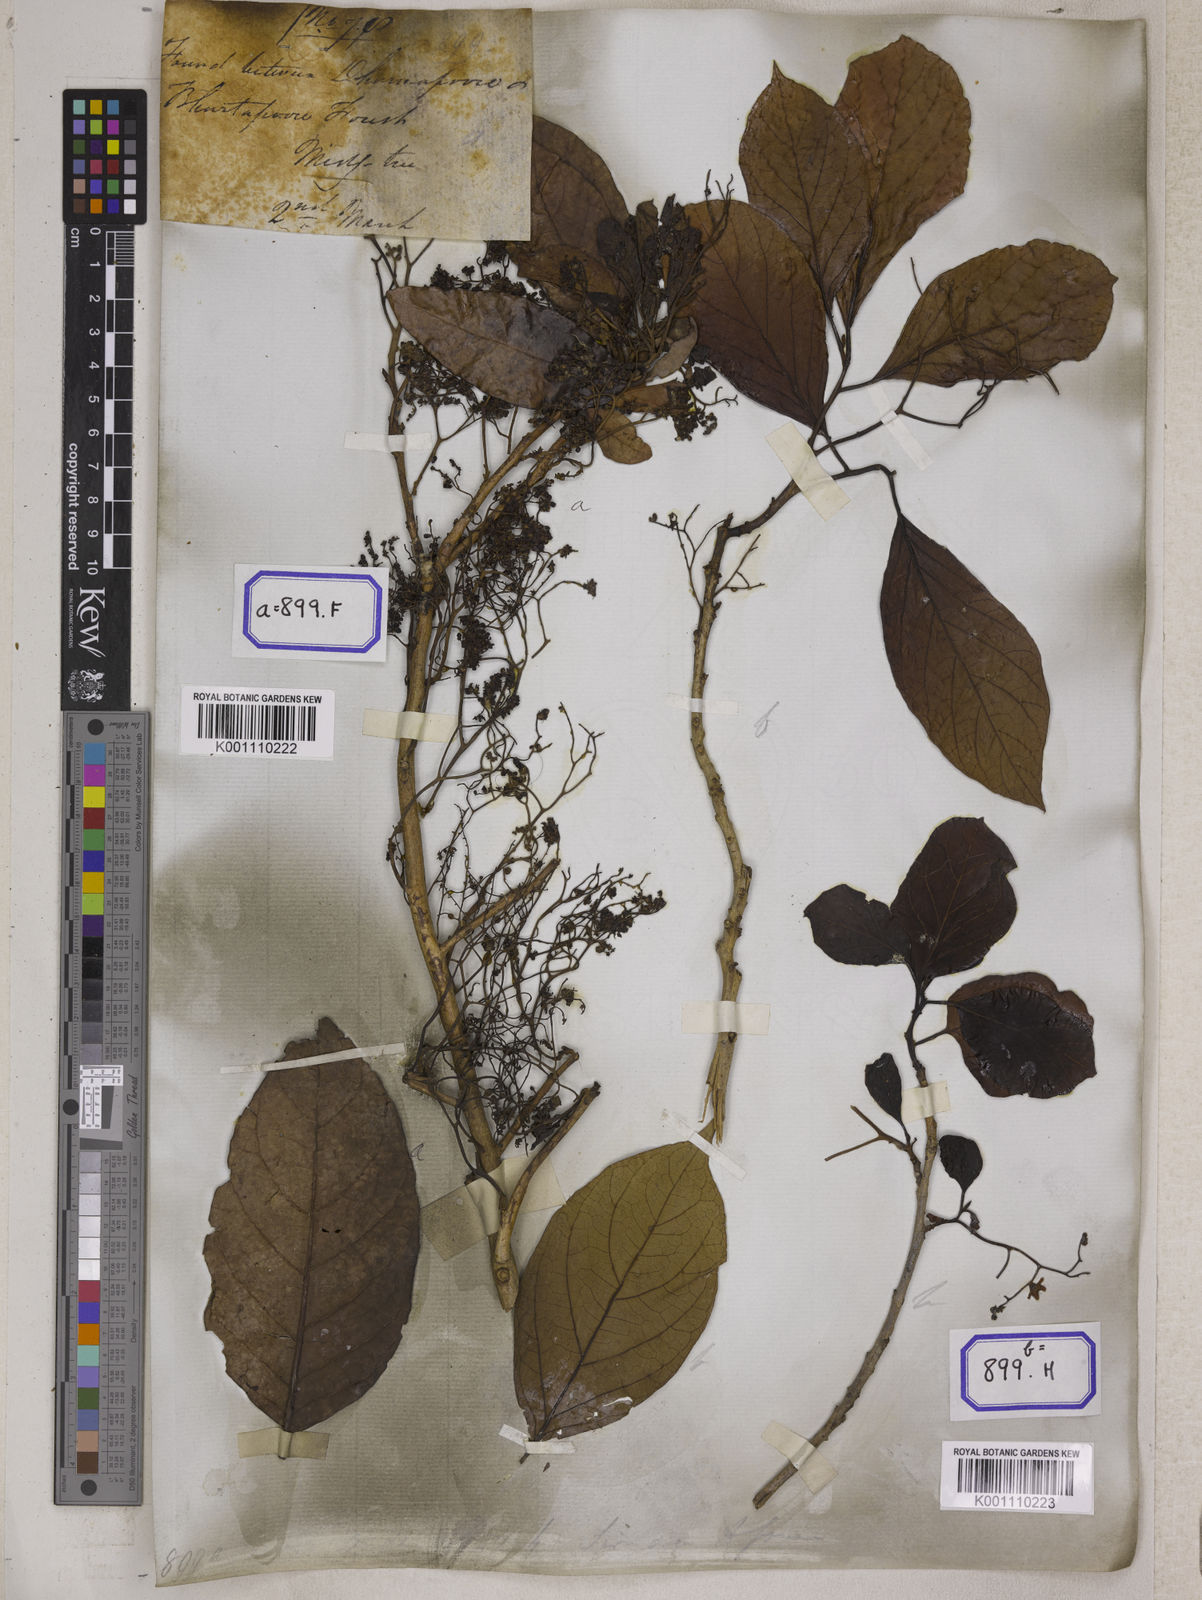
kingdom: Plantae
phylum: Tracheophyta
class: Magnoliopsida
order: Boraginales
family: Ehretiaceae
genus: Ehretia
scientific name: Ehretia laevis
